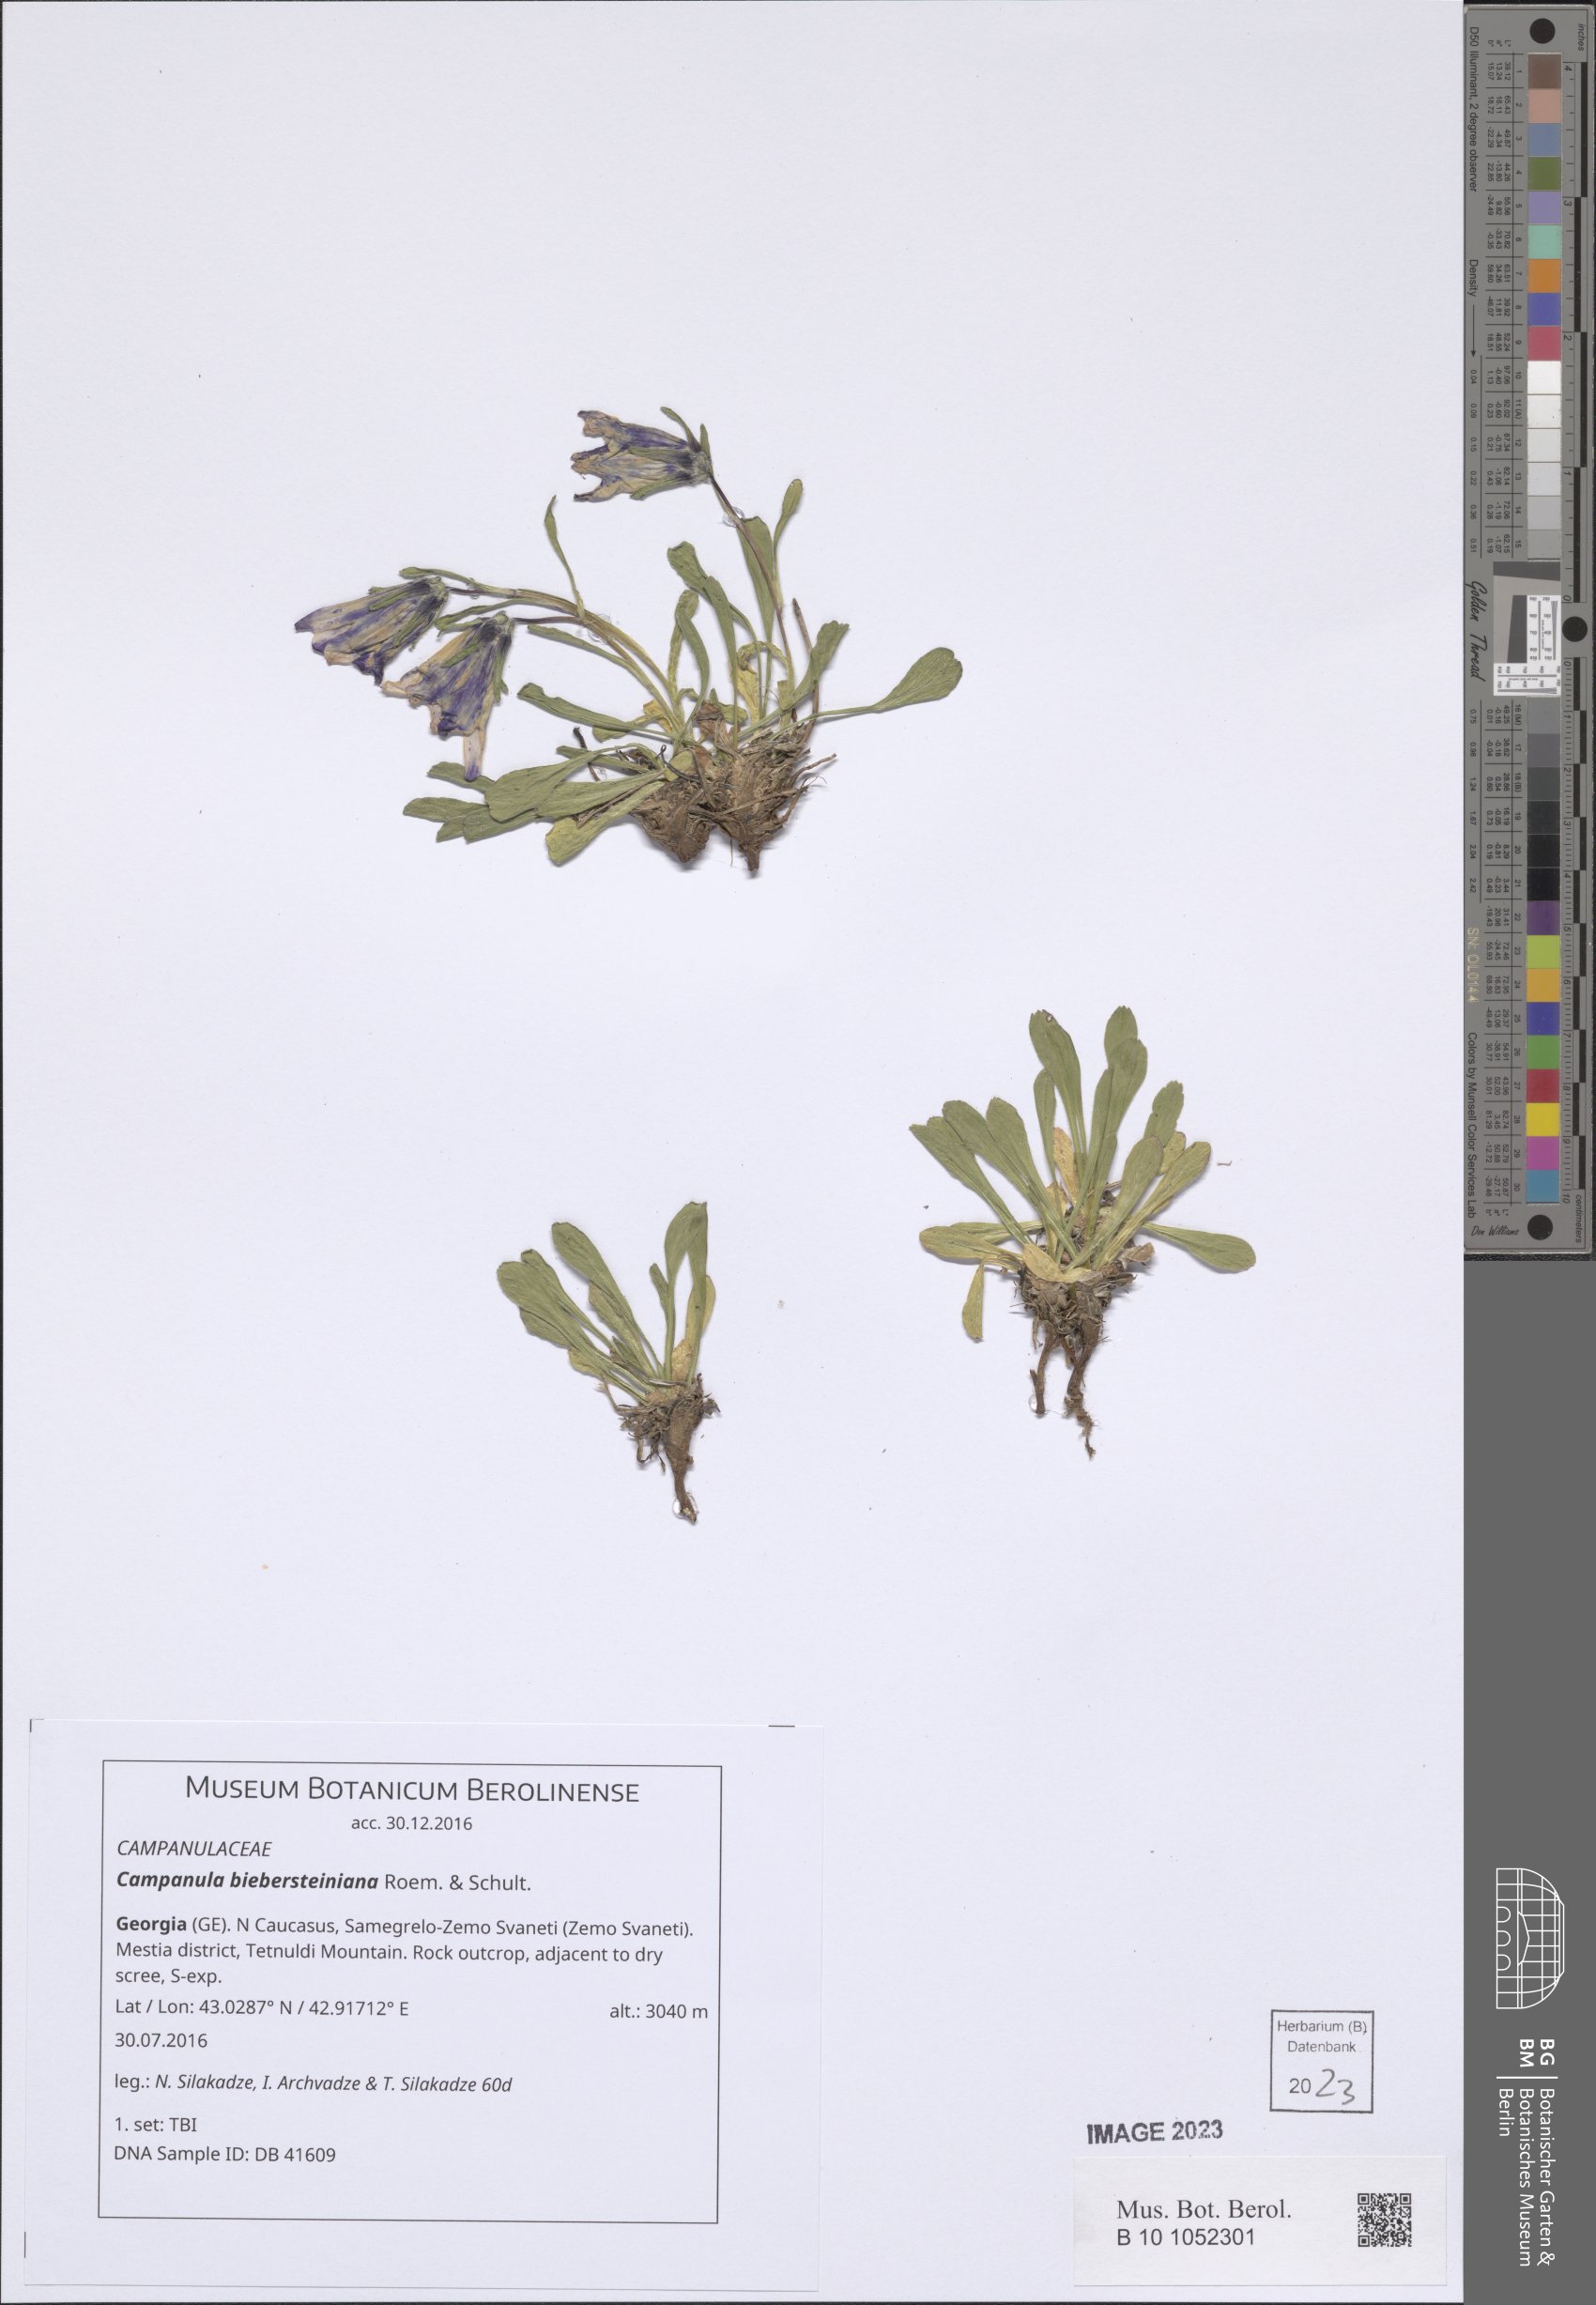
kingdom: Plantae
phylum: Tracheophyta
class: Magnoliopsida
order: Asterales
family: Campanulaceae
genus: Campanula
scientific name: Campanula tridentata
